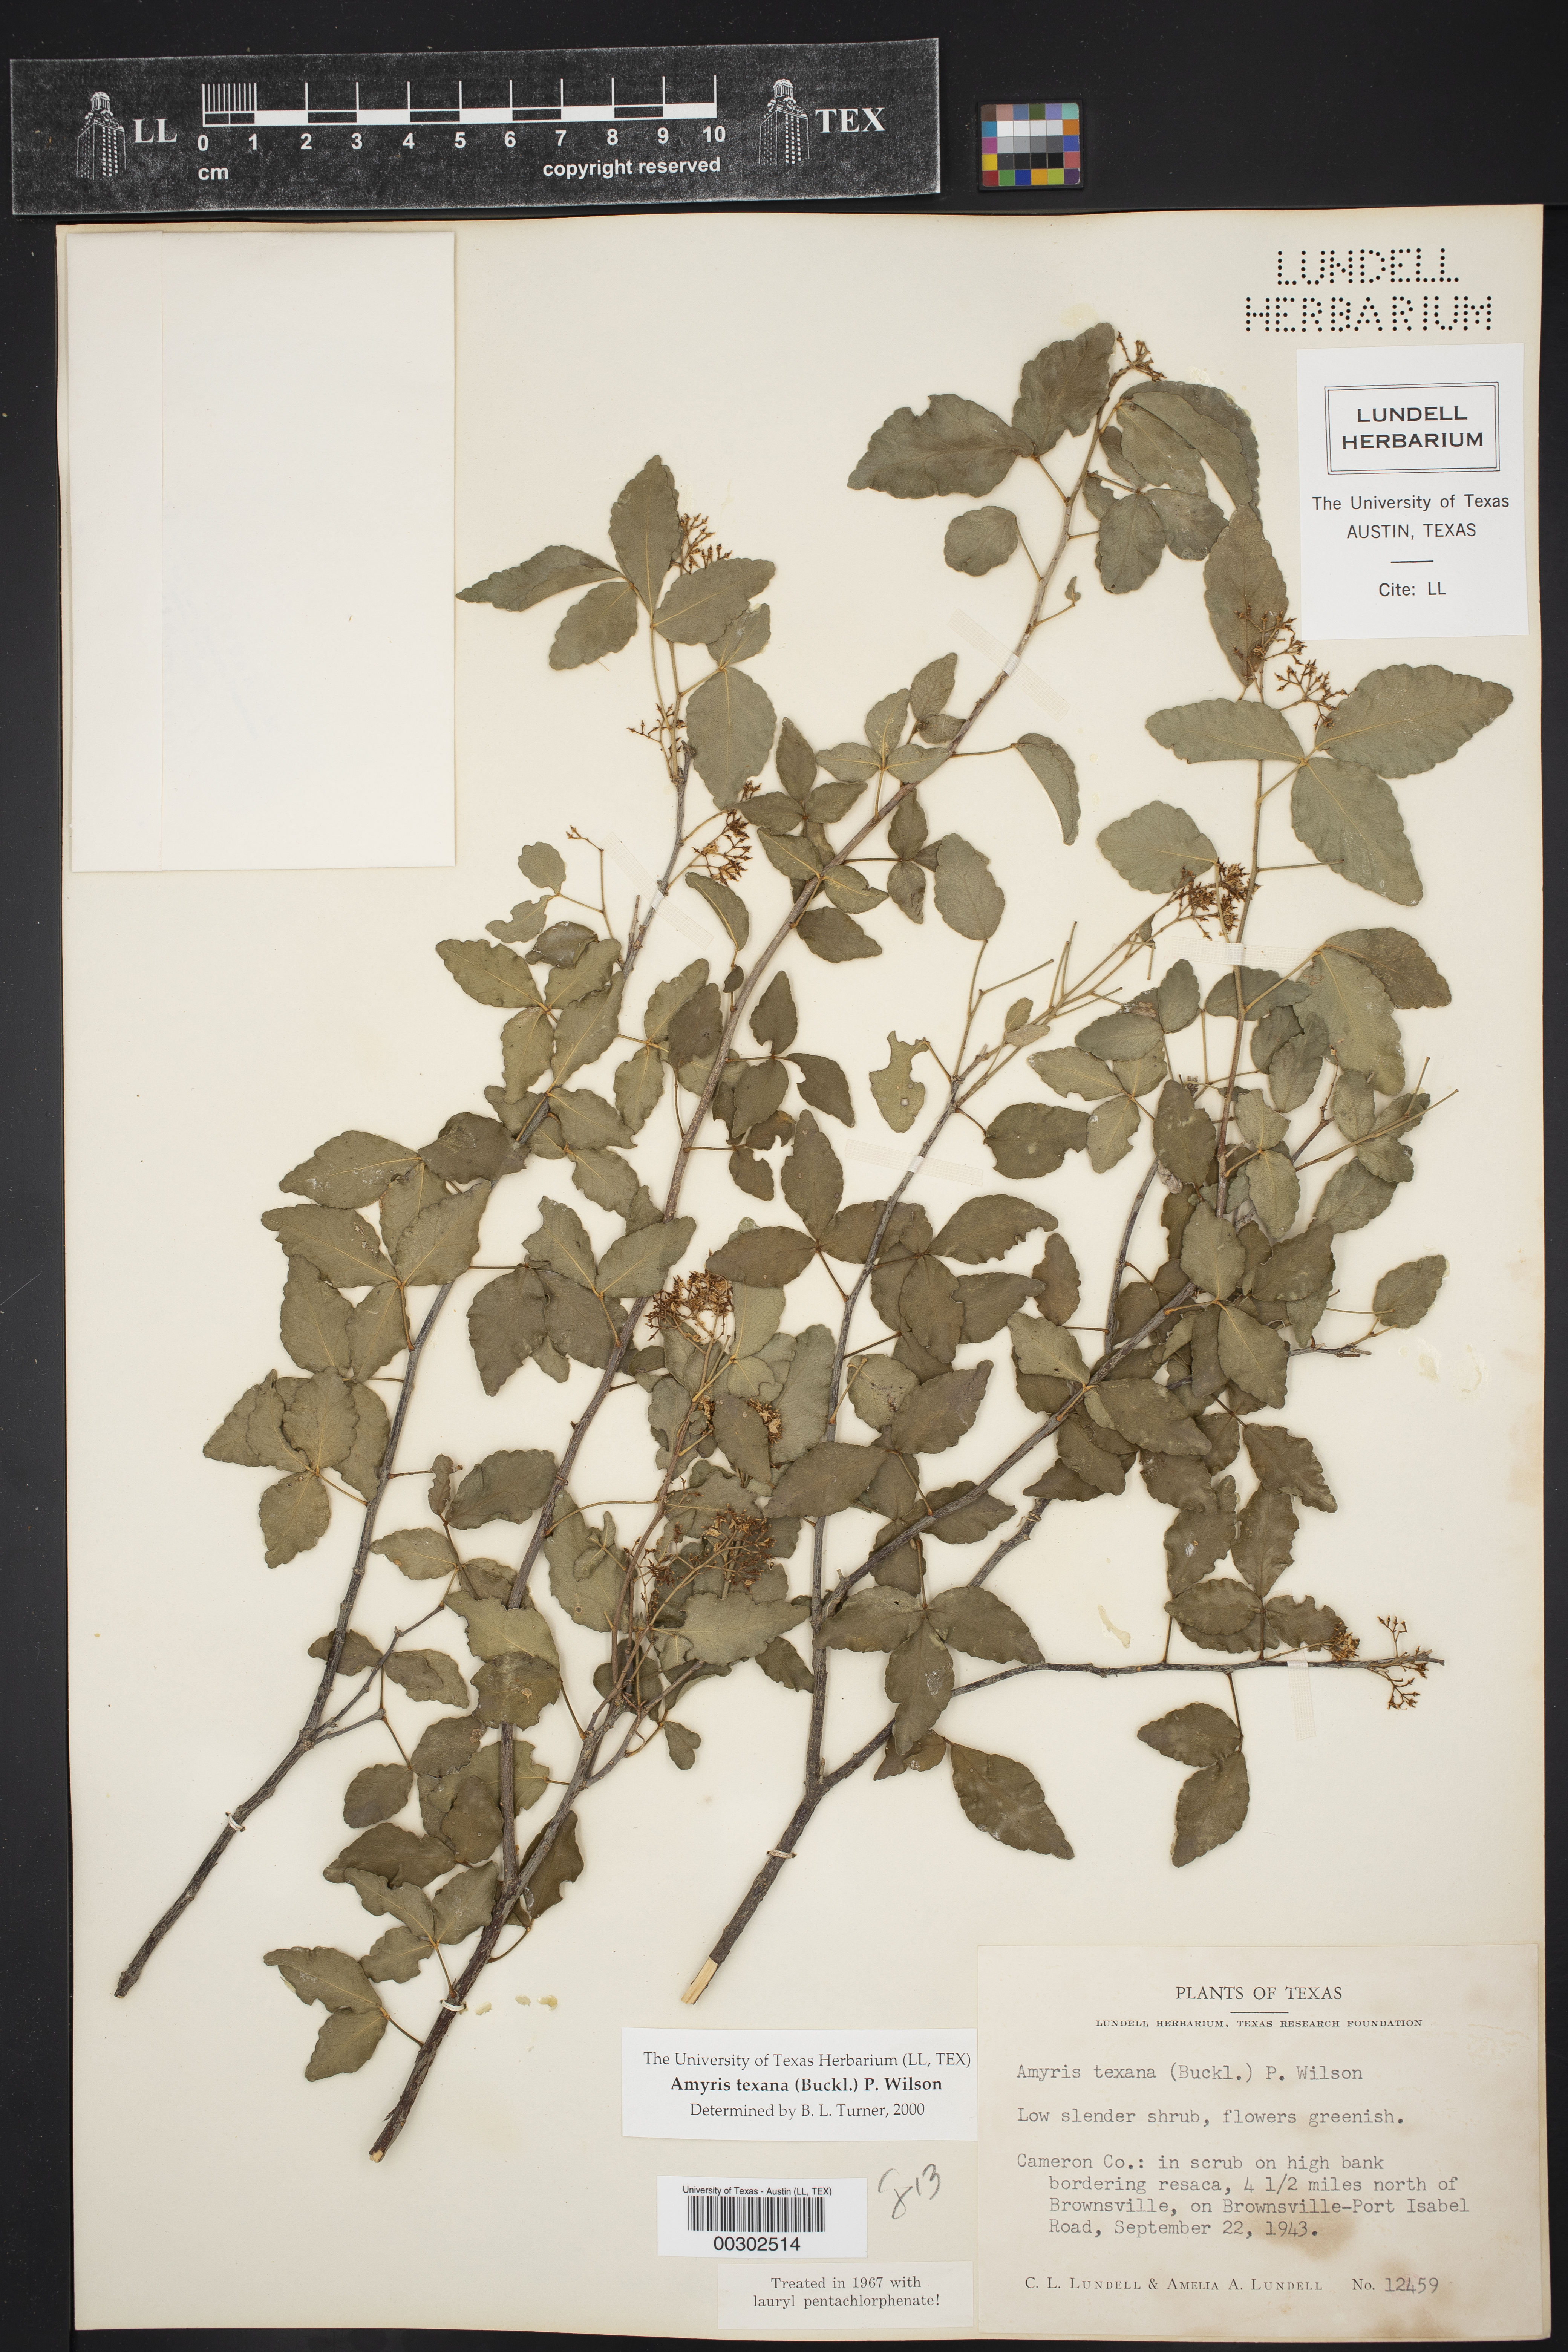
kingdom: Plantae
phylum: Tracheophyta
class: Magnoliopsida
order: Sapindales
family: Rutaceae
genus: Amyris
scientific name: Amyris texana
